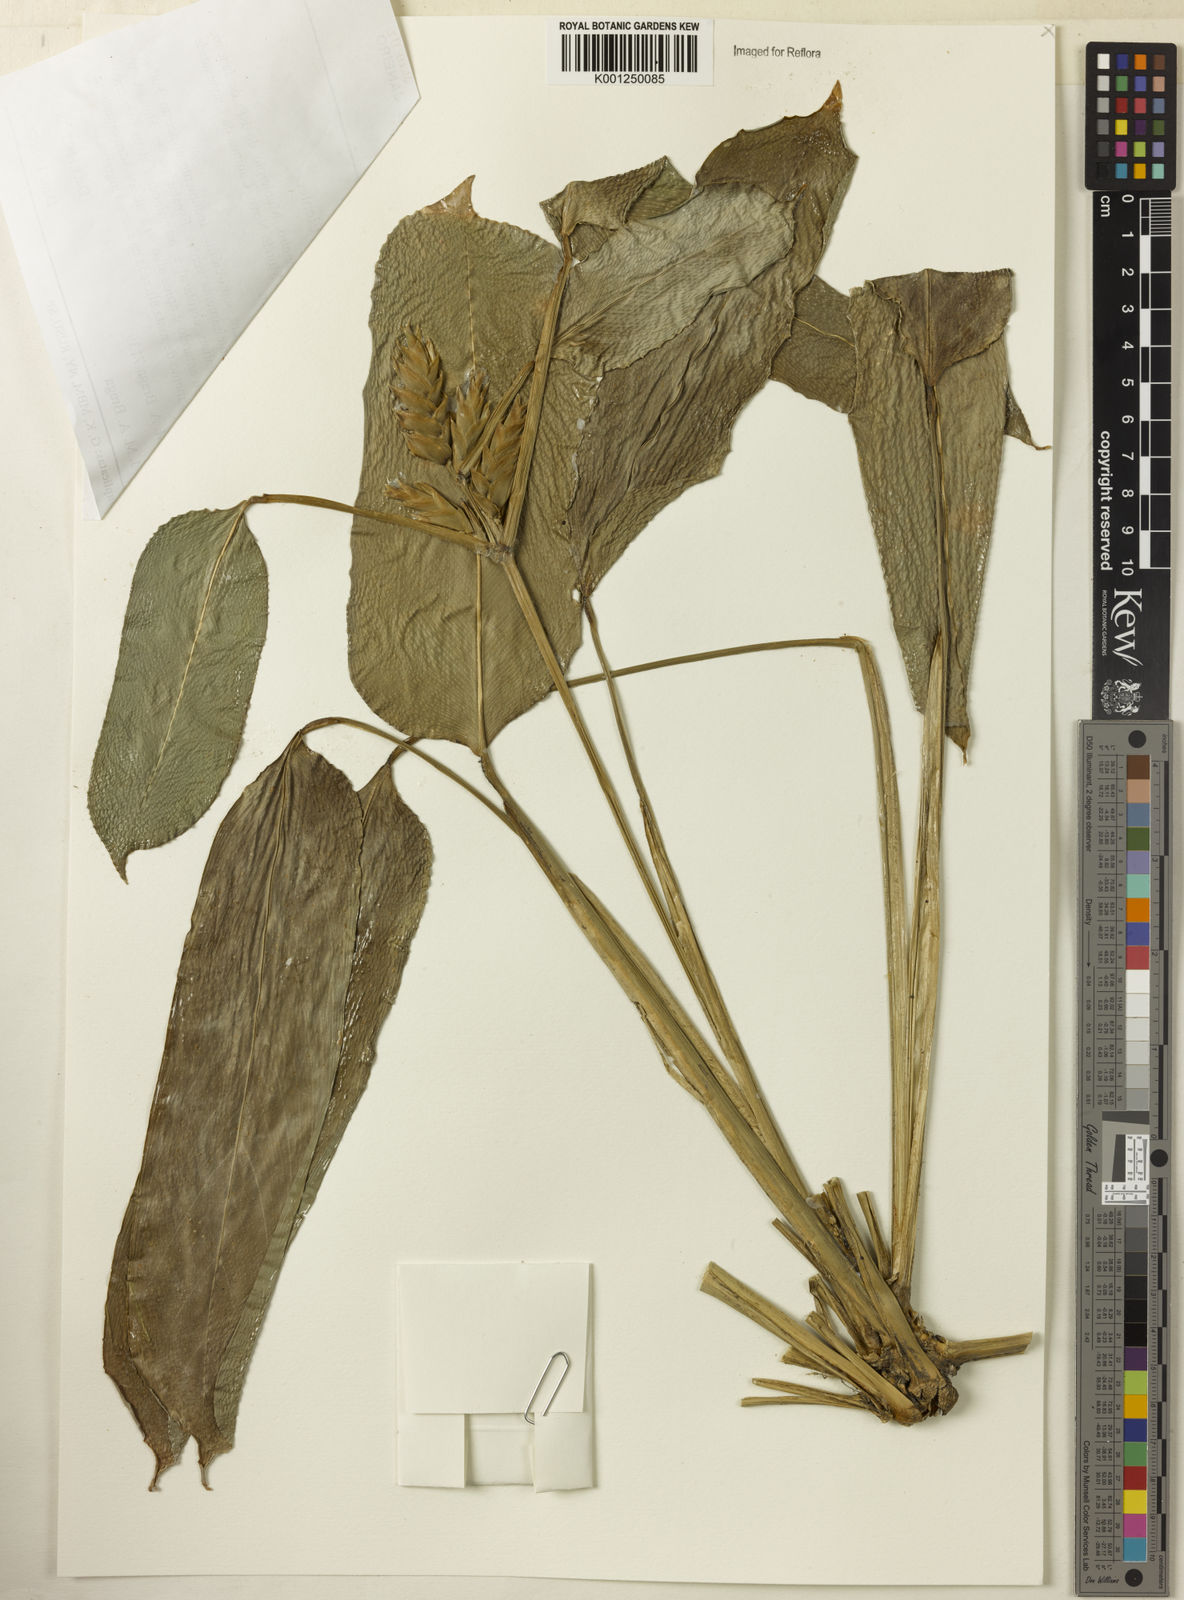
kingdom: Plantae
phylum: Tracheophyta
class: Liliopsida
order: Zingiberales
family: Marantaceae
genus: Ctenanthe
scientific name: Ctenanthe marantifolia
